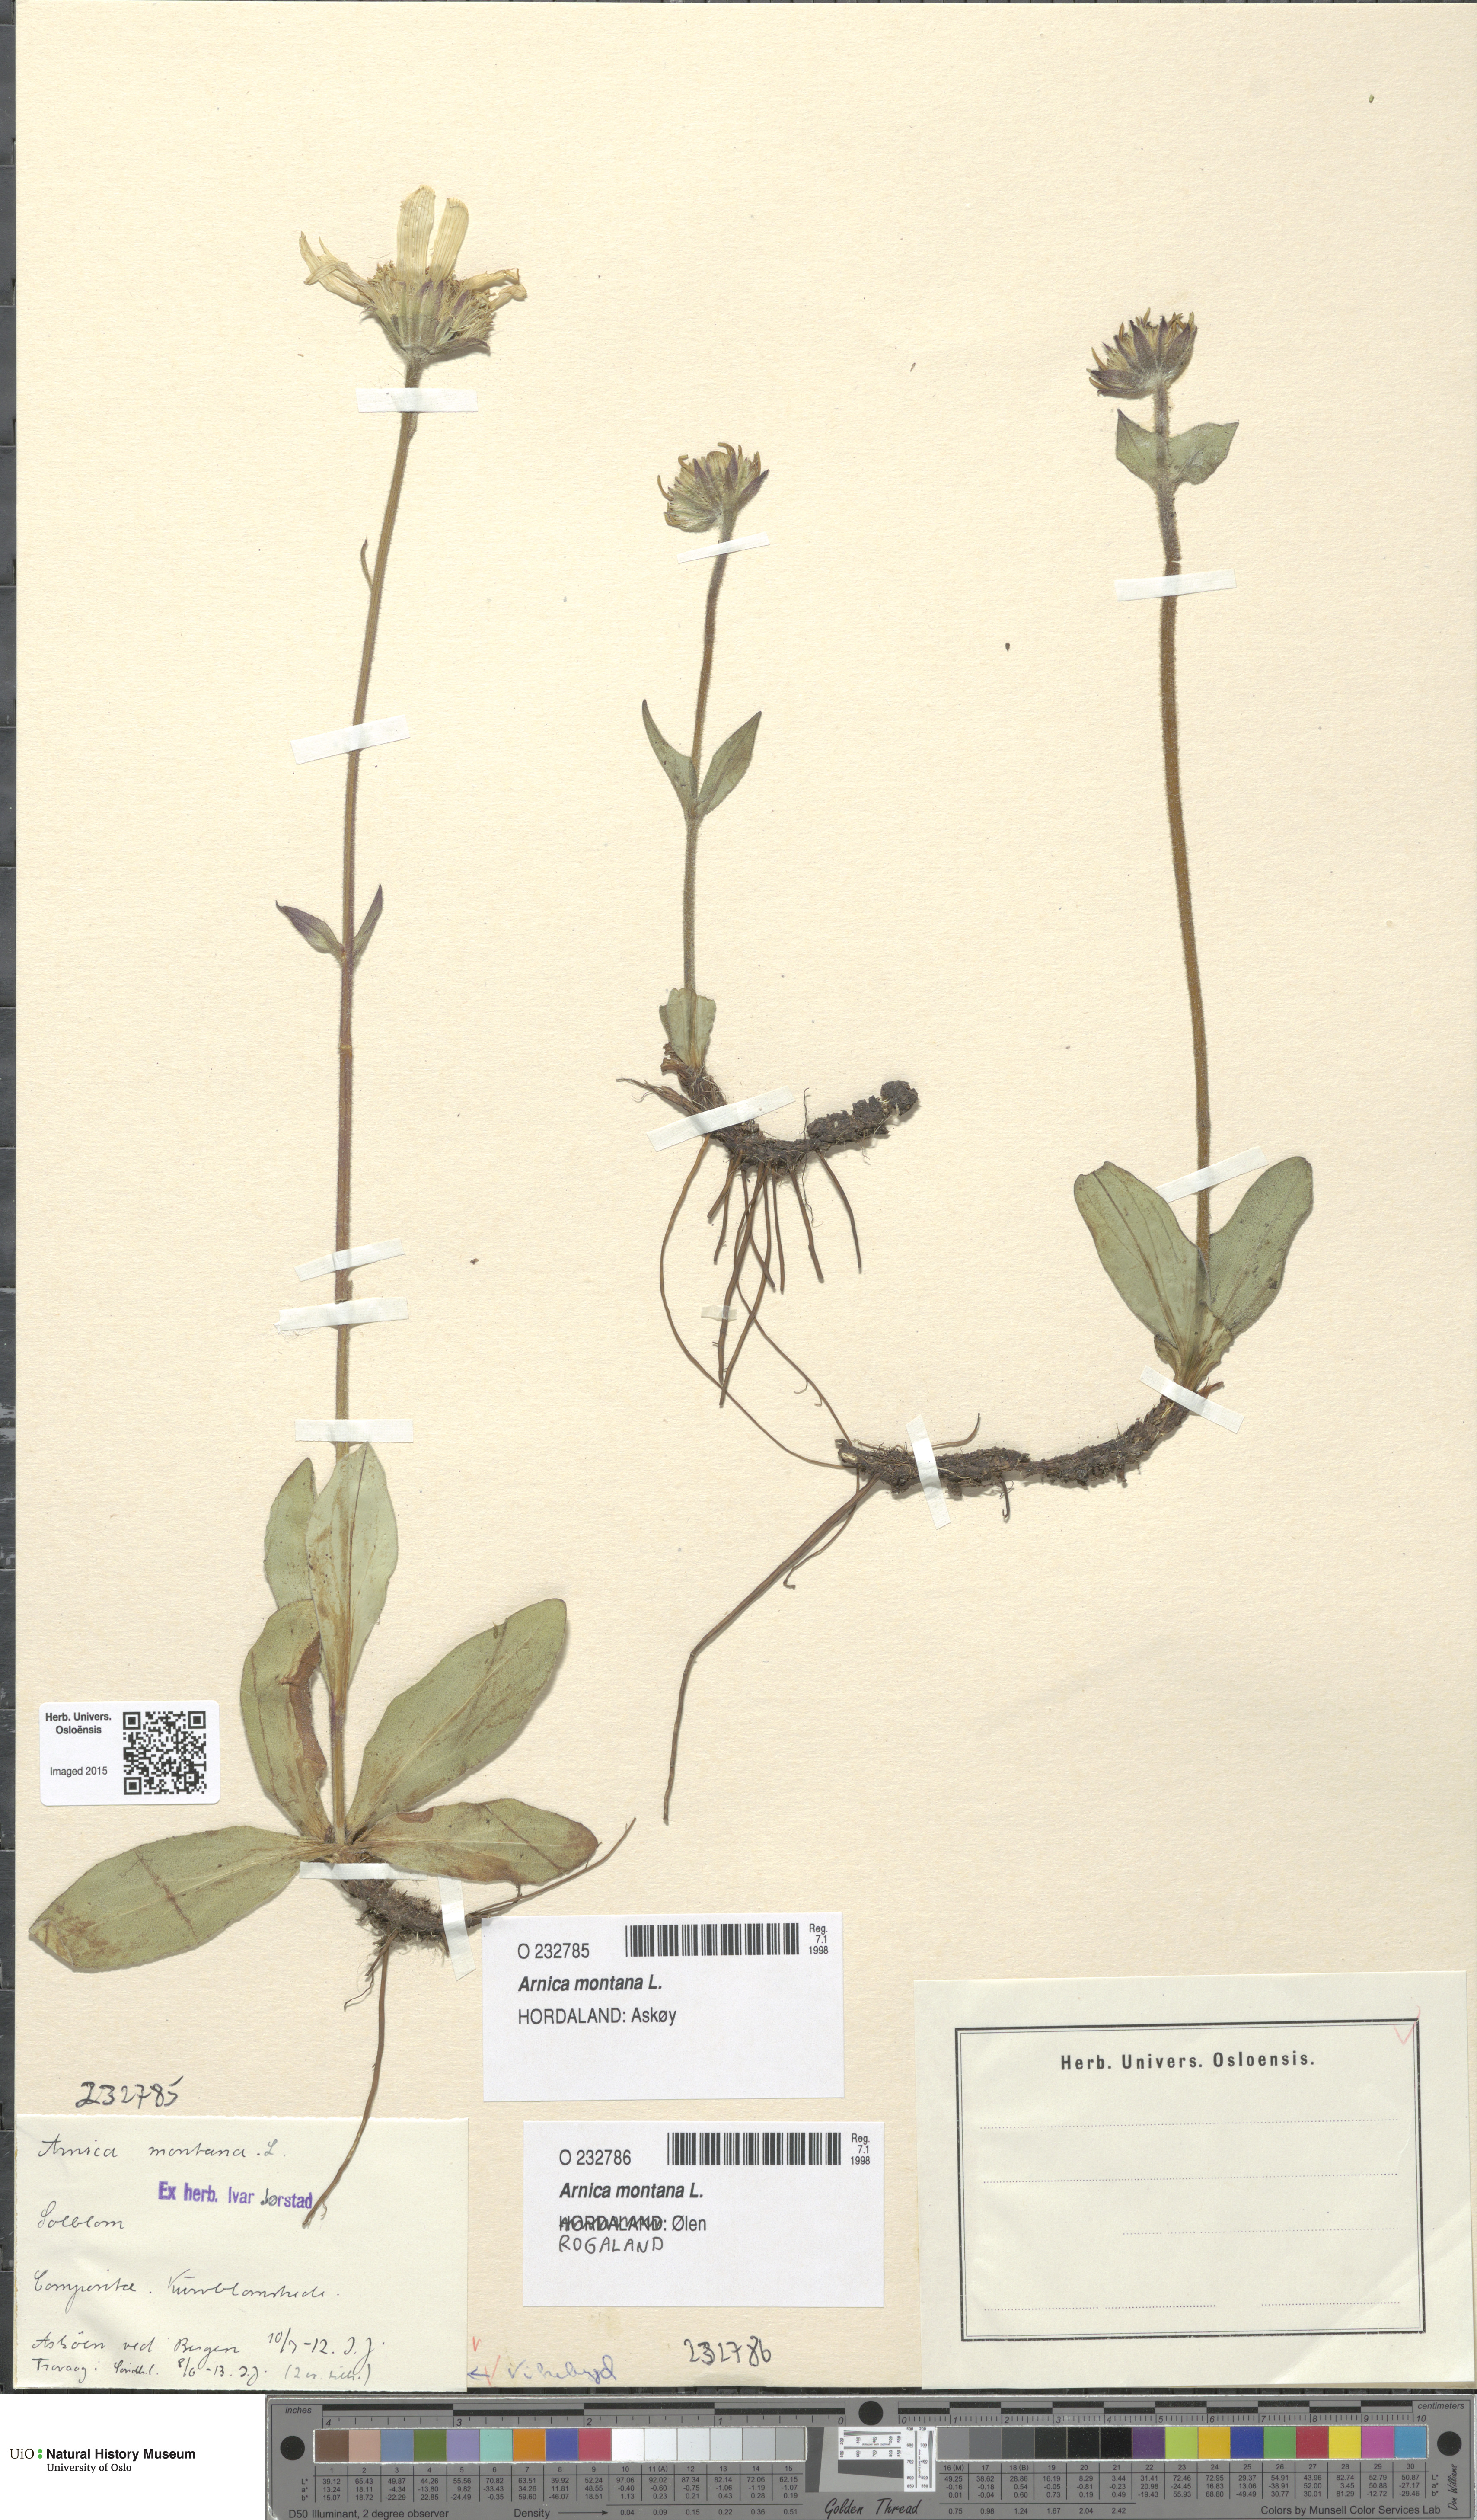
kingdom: Plantae
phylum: Tracheophyta
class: Magnoliopsida
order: Asterales
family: Asteraceae
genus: Arnica
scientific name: Arnica montana
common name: Leopard's bane
